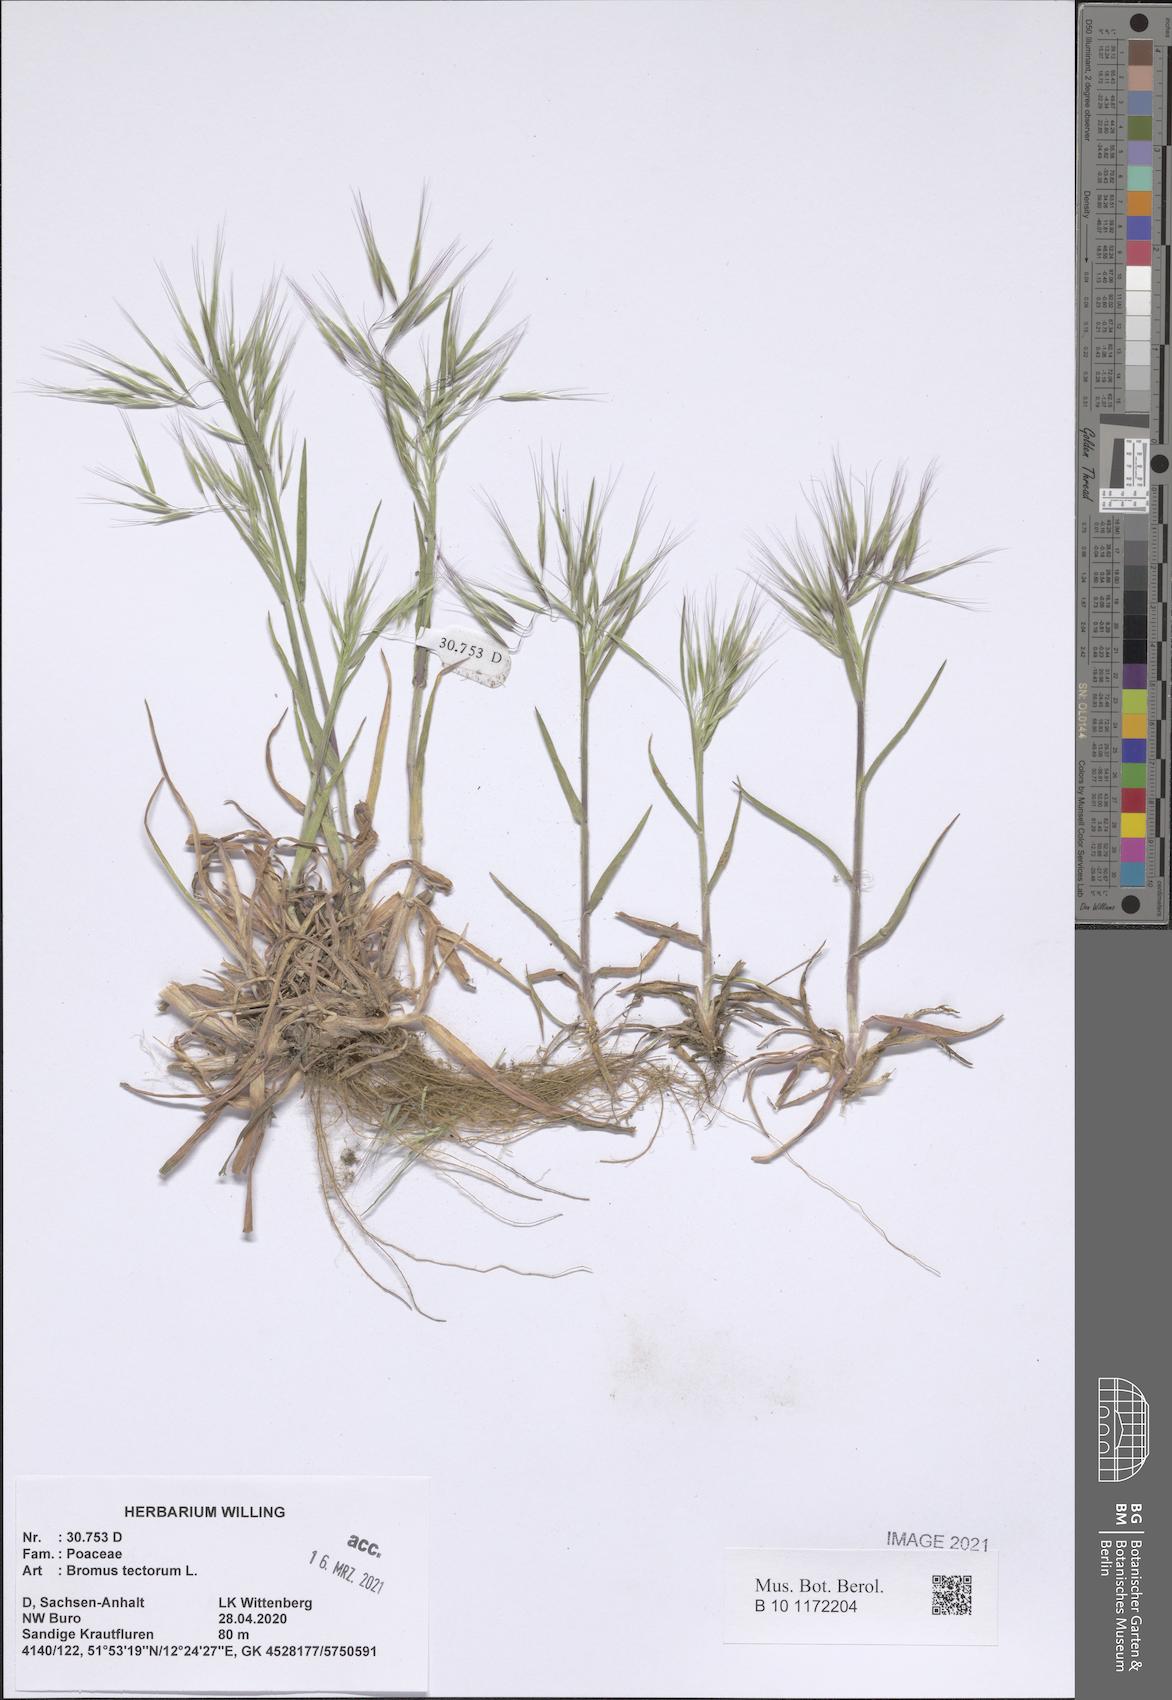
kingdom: Plantae
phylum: Tracheophyta
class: Liliopsida
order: Poales
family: Poaceae
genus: Bromus
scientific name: Bromus tectorum
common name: Cheatgrass
